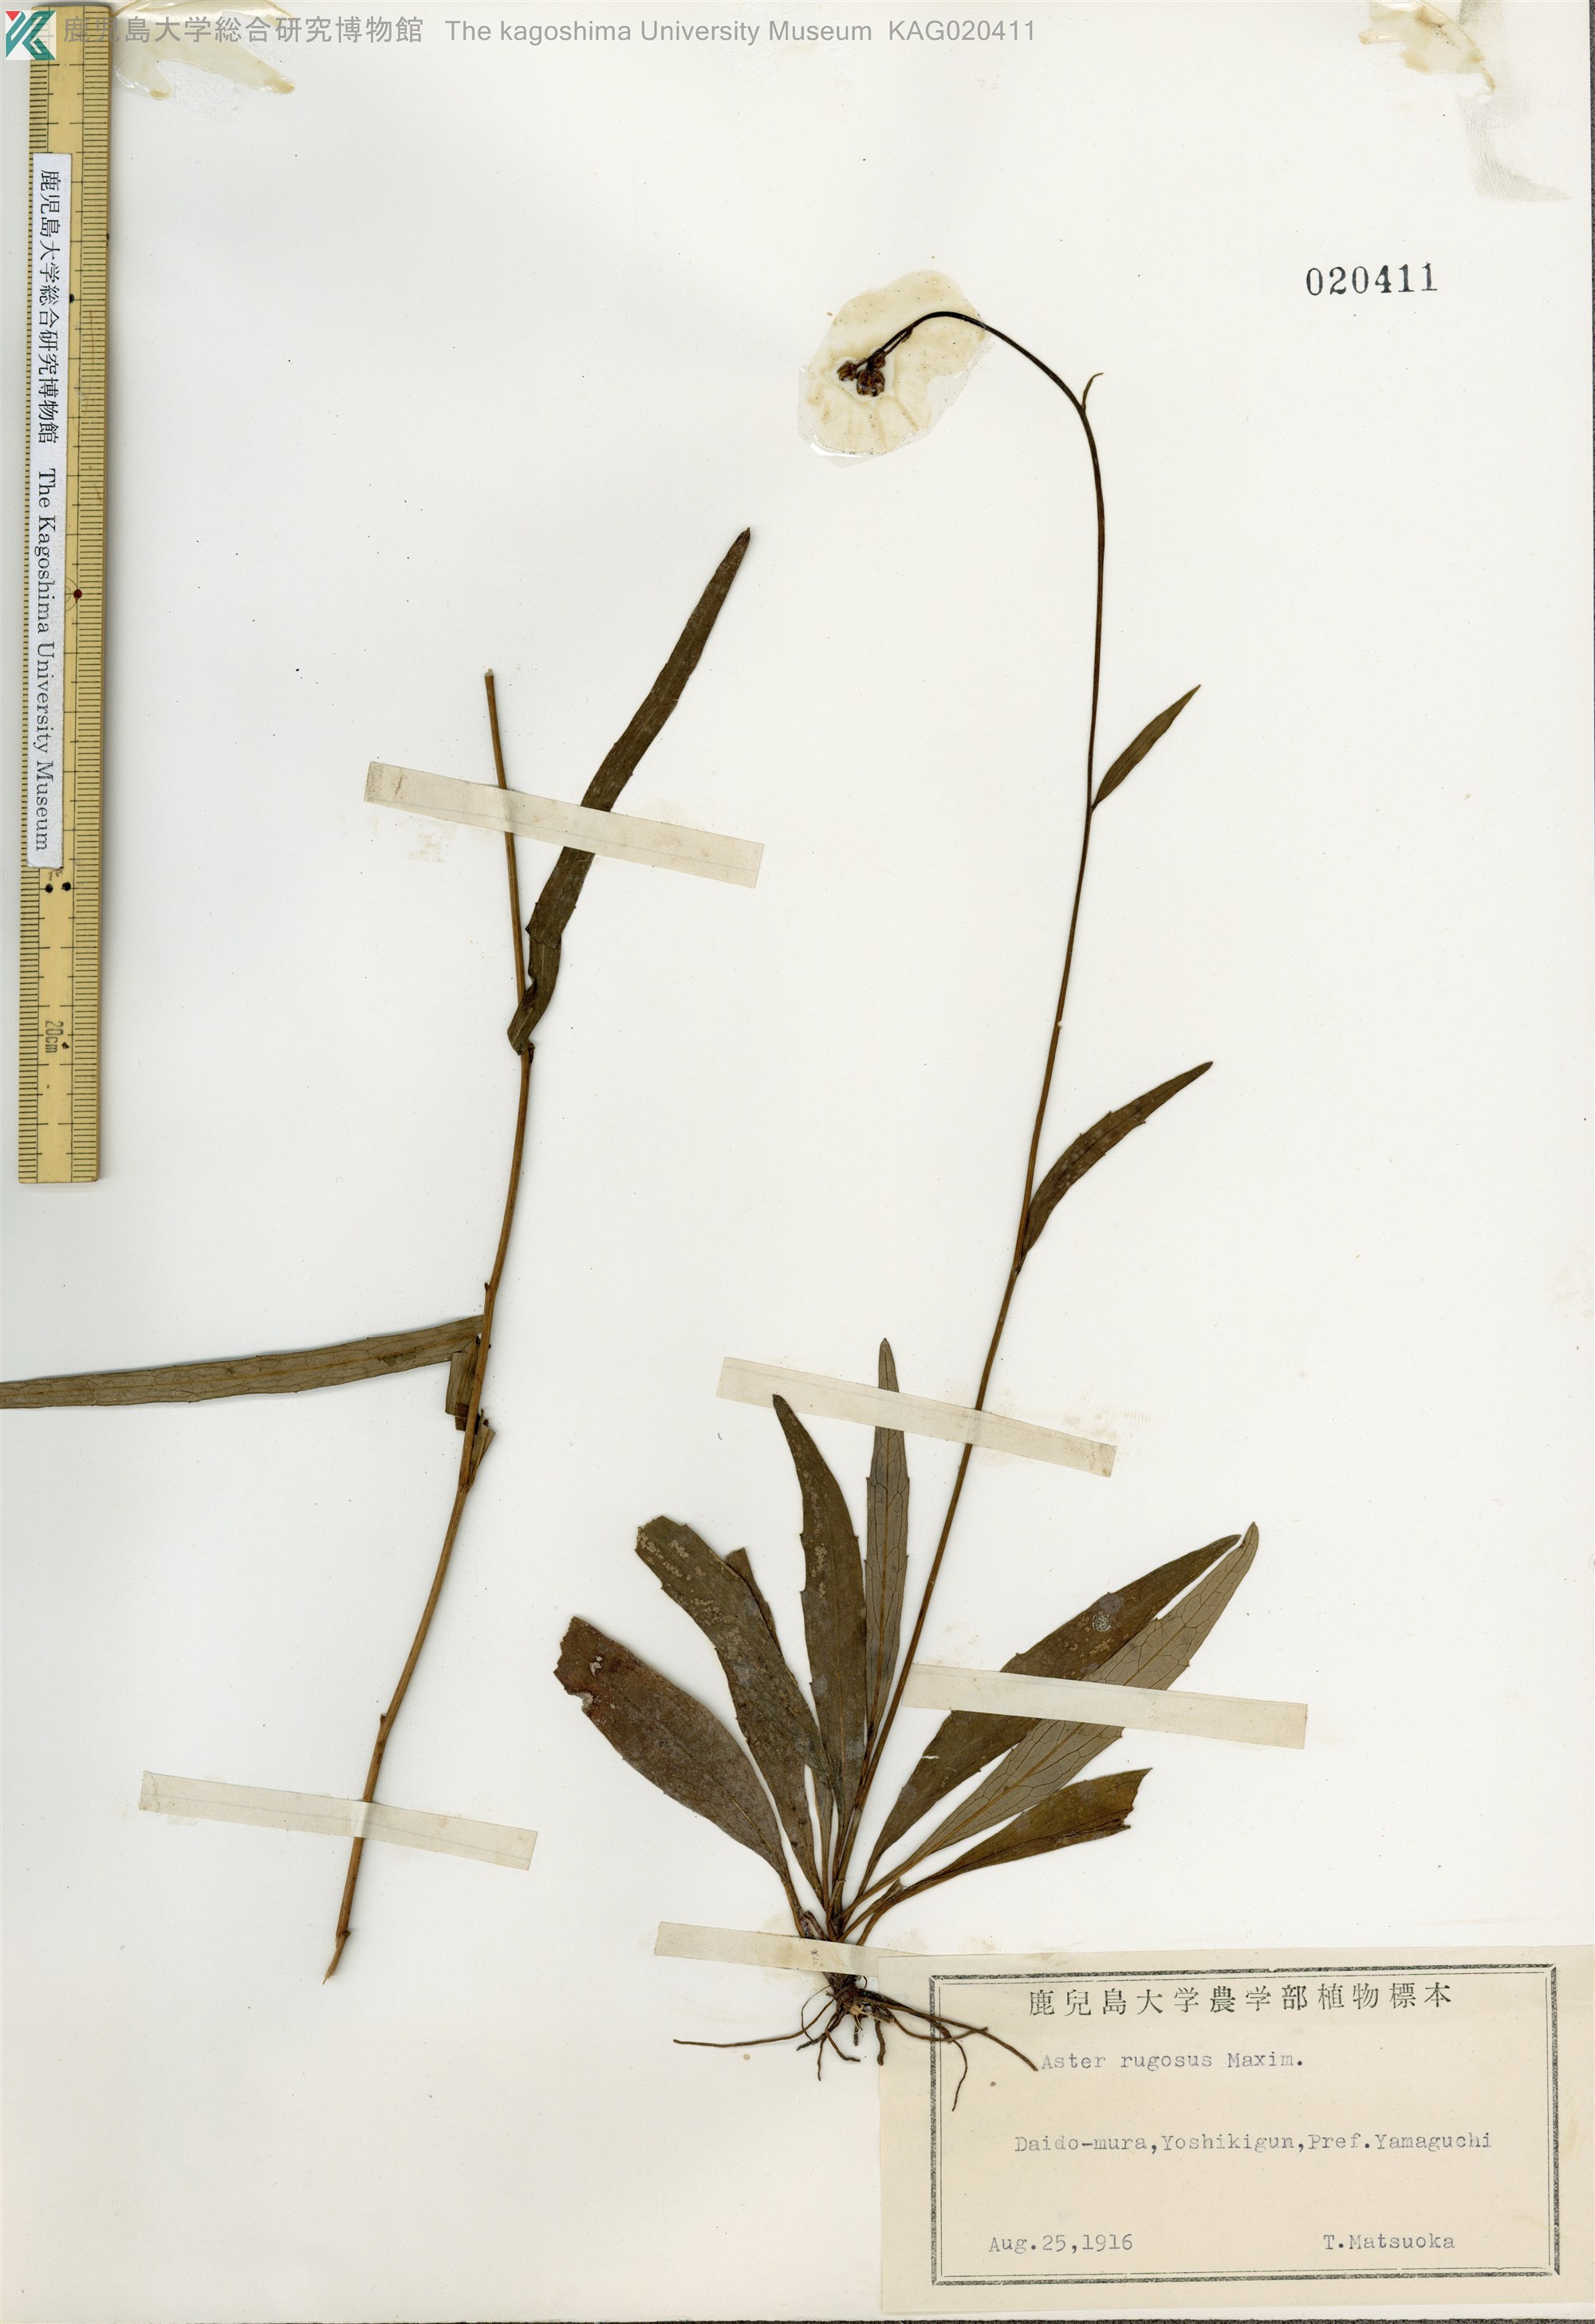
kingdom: Plantae
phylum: Tracheophyta
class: Magnoliopsida
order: Asterales
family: Asteraceae
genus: Cardiagyris
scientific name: Cardiagyris rugulosa
